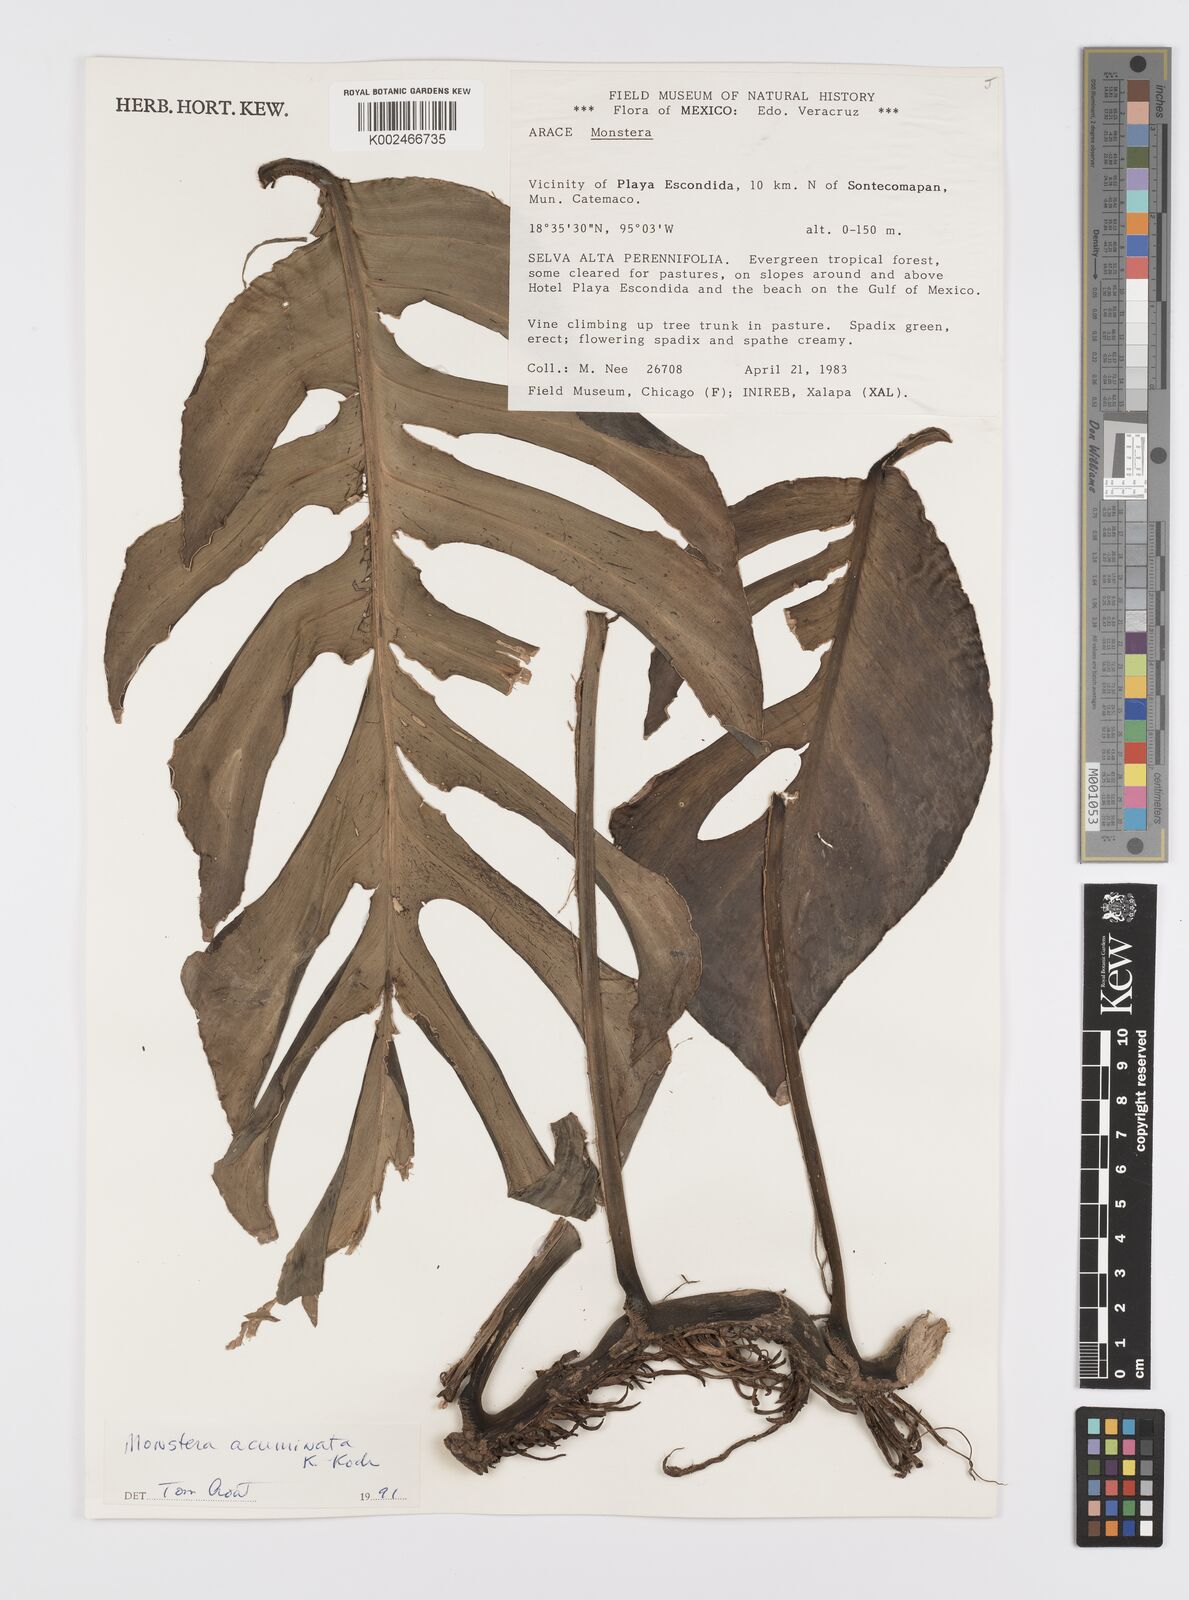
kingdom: Plantae
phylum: Tracheophyta
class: Liliopsida
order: Alismatales
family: Araceae
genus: Monstera
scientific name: Monstera acuminata
